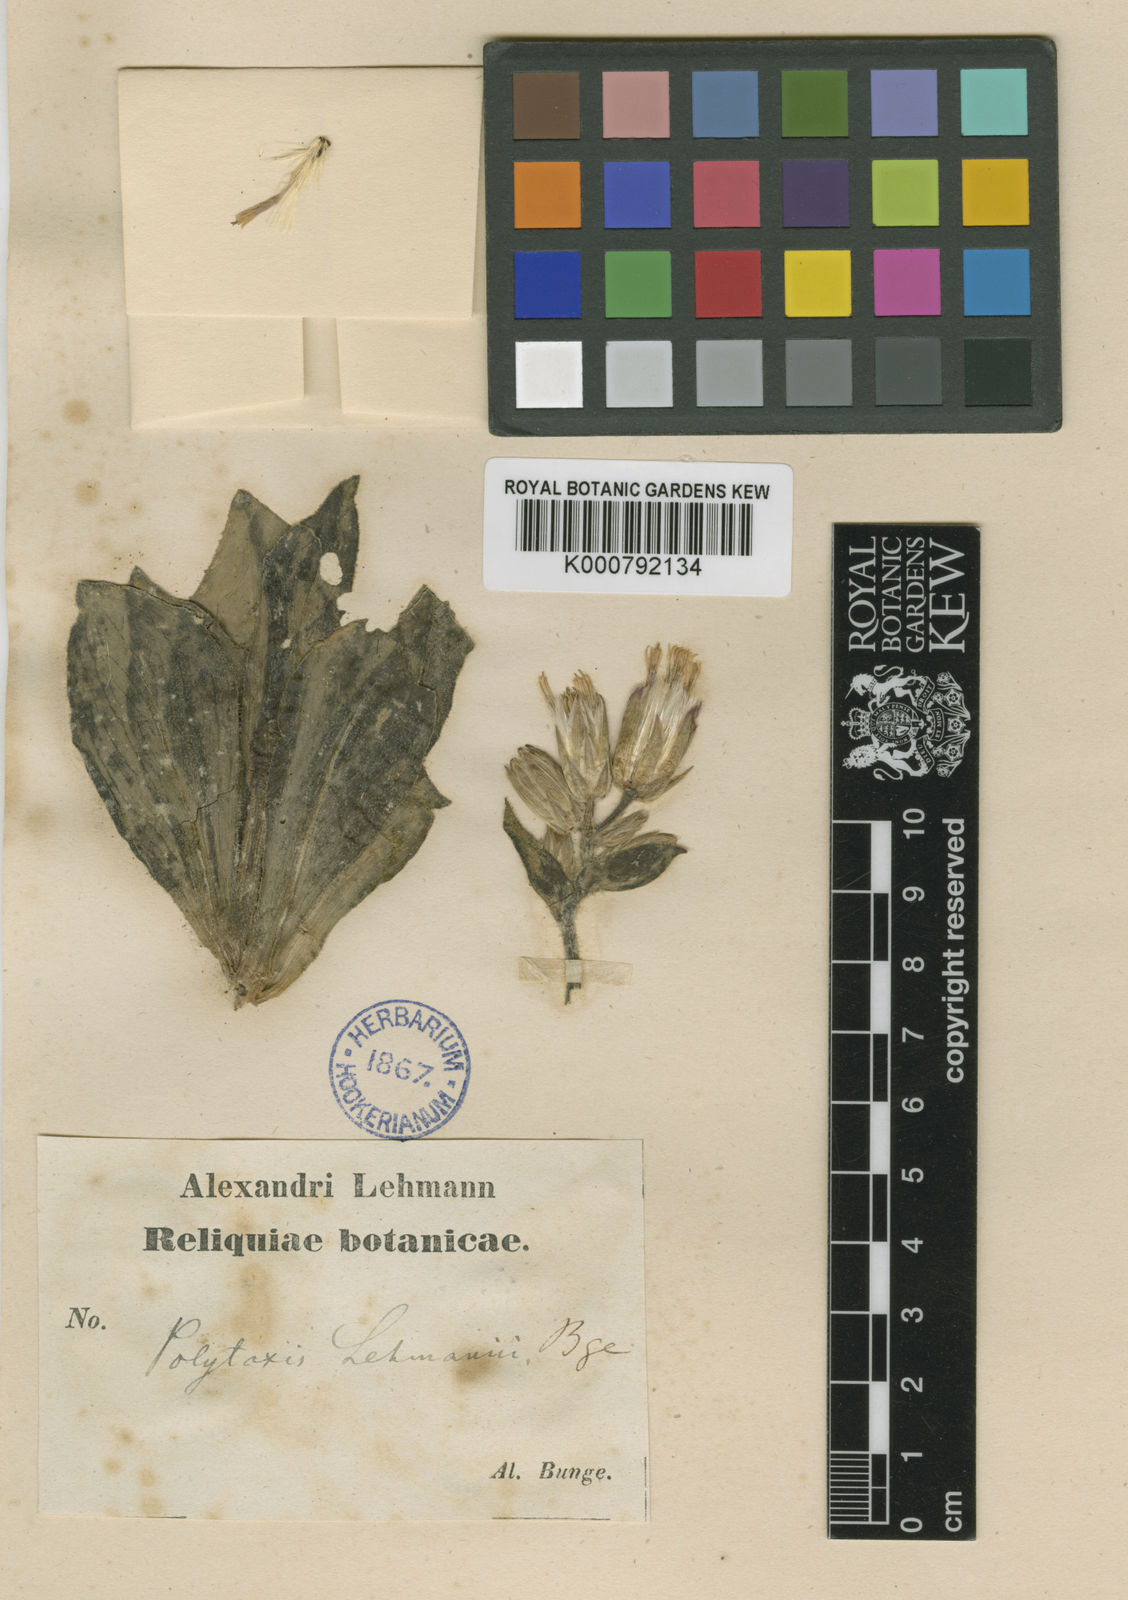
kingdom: Plantae
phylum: Tracheophyta
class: Magnoliopsida
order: Asterales
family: Asteraceae
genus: Jurinea
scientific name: Jurinea
